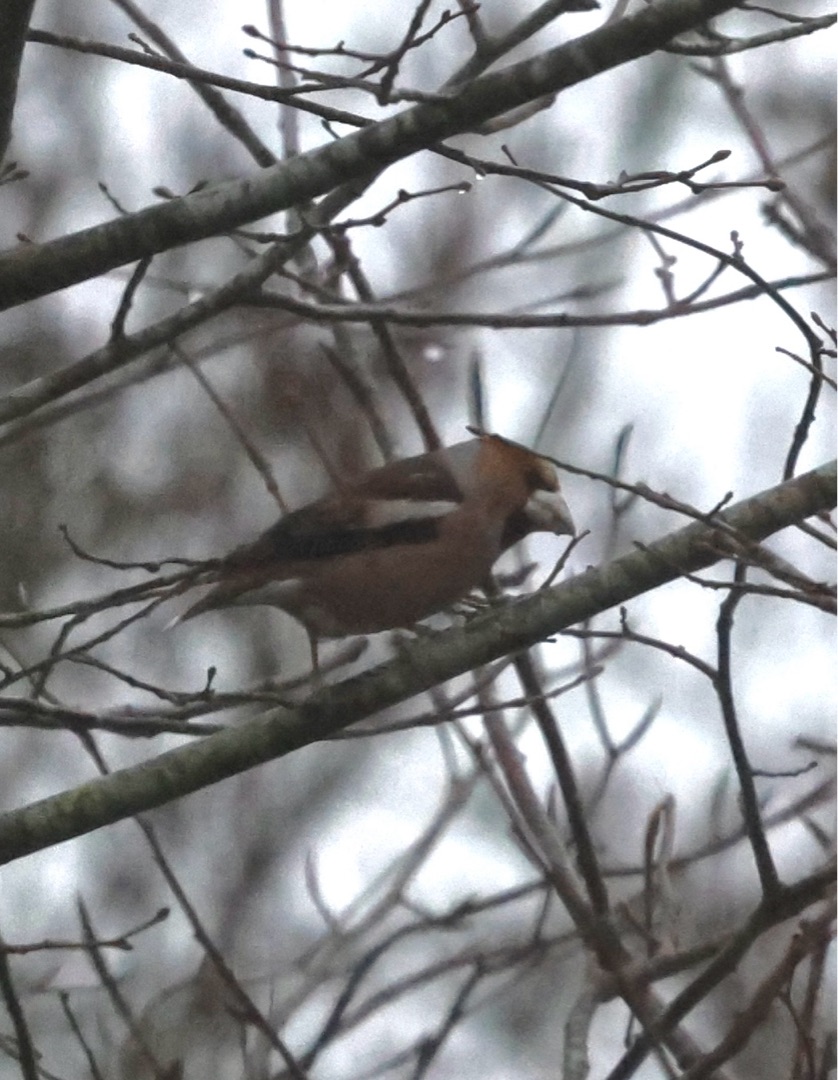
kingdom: Animalia
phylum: Chordata
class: Aves
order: Passeriformes
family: Fringillidae
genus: Coccothraustes
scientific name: Coccothraustes coccothraustes
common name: Kernebider
